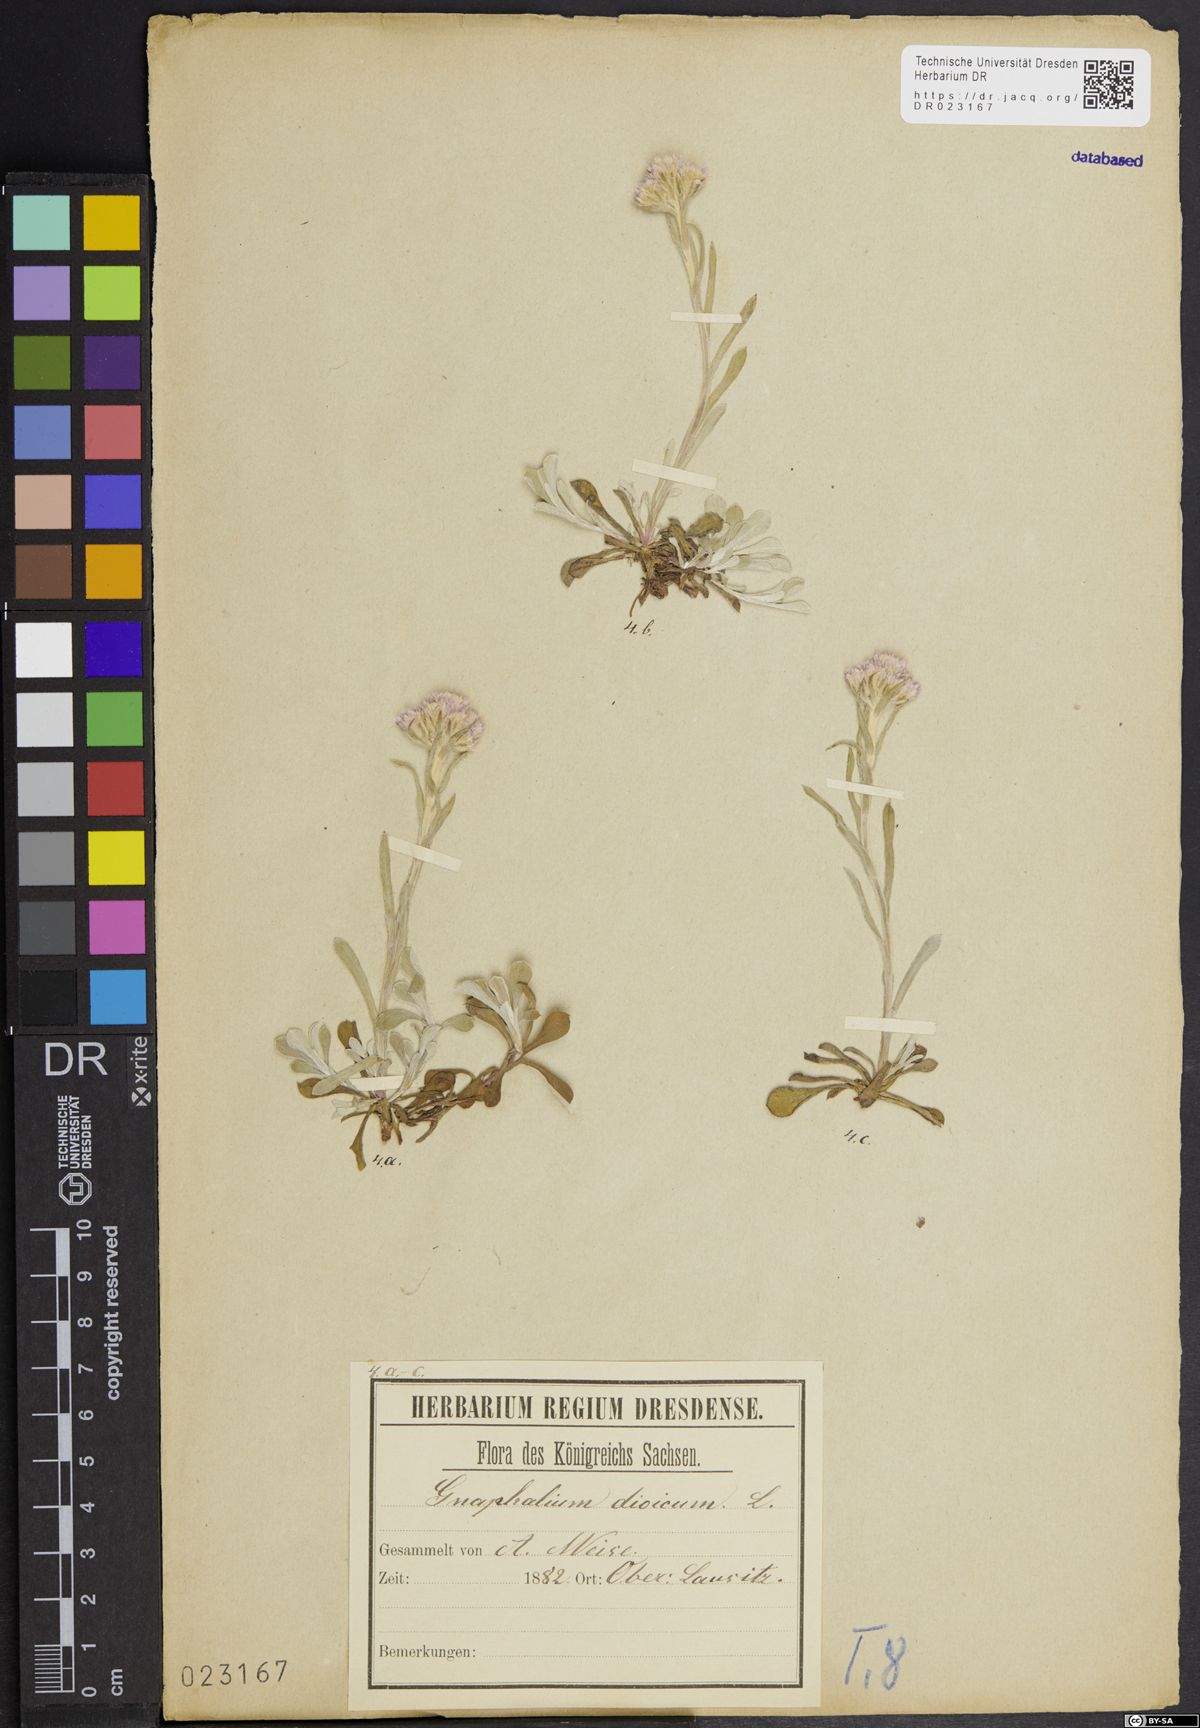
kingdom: Plantae
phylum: Tracheophyta
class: Magnoliopsida
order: Asterales
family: Asteraceae
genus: Antennaria
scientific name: Antennaria dioica
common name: Mountain everlasting
